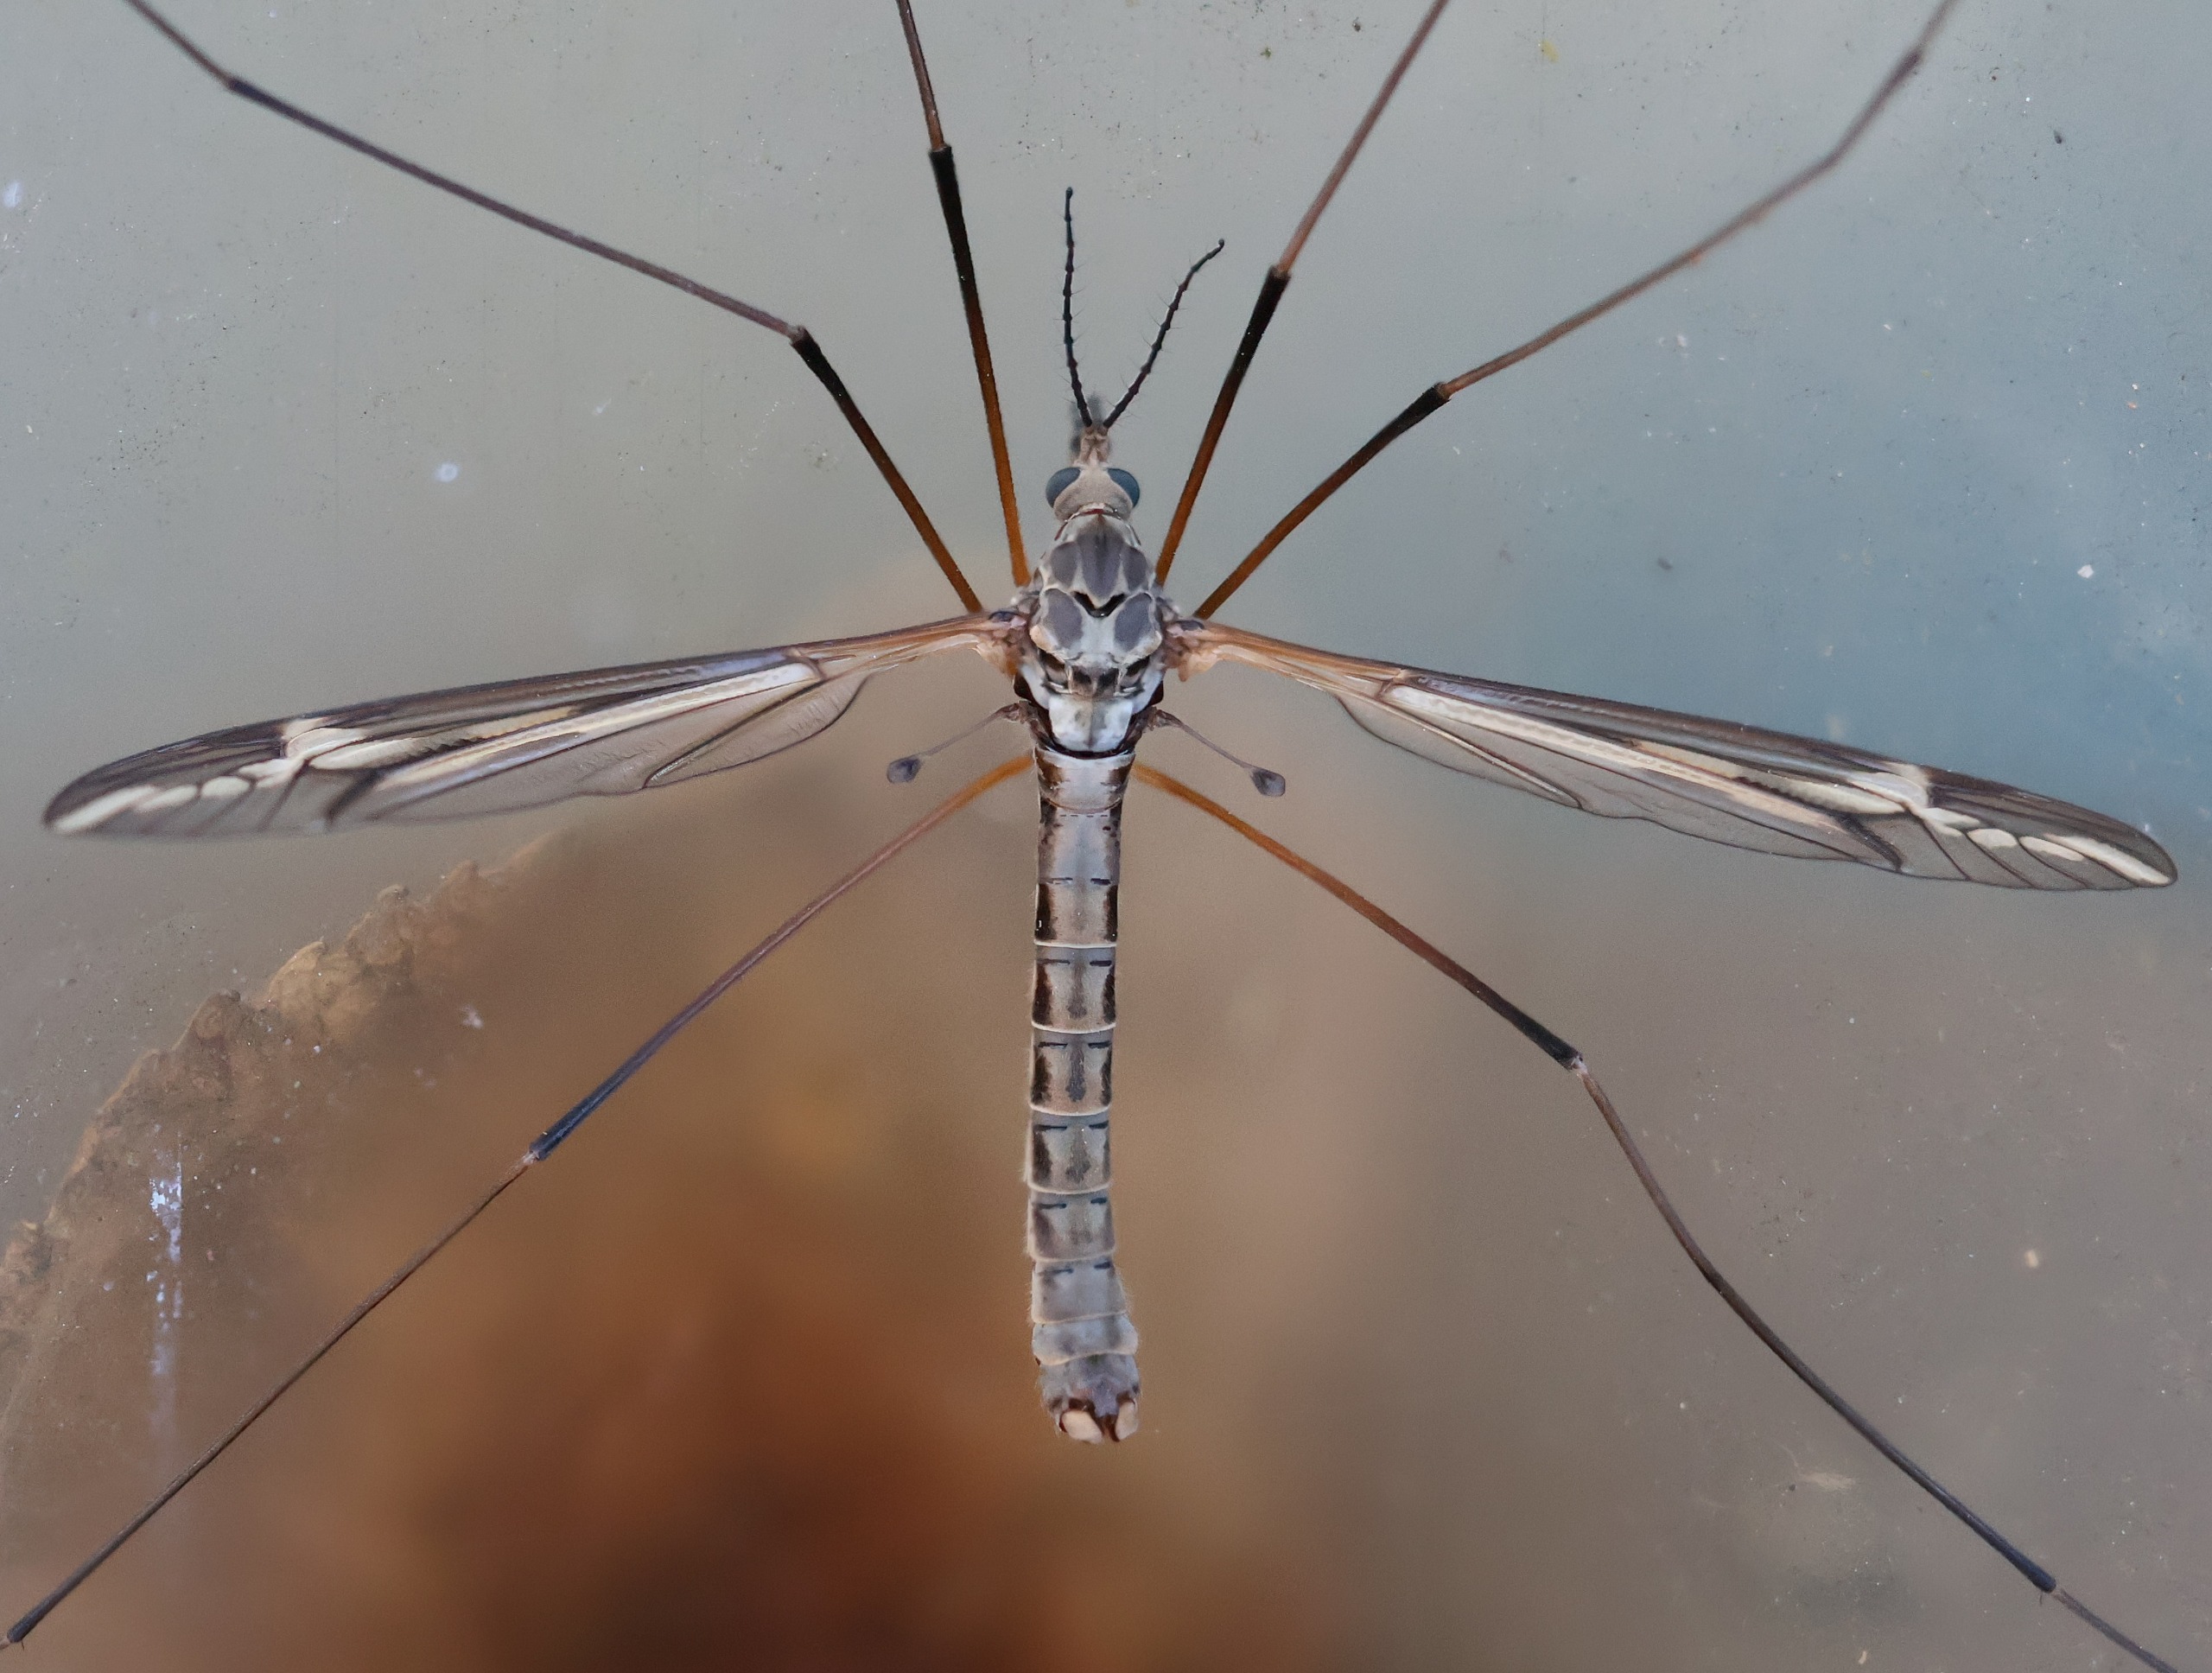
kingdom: Animalia
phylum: Arthropoda
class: Insecta
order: Diptera
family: Tipulidae
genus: Tipula
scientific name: Tipula vittata
